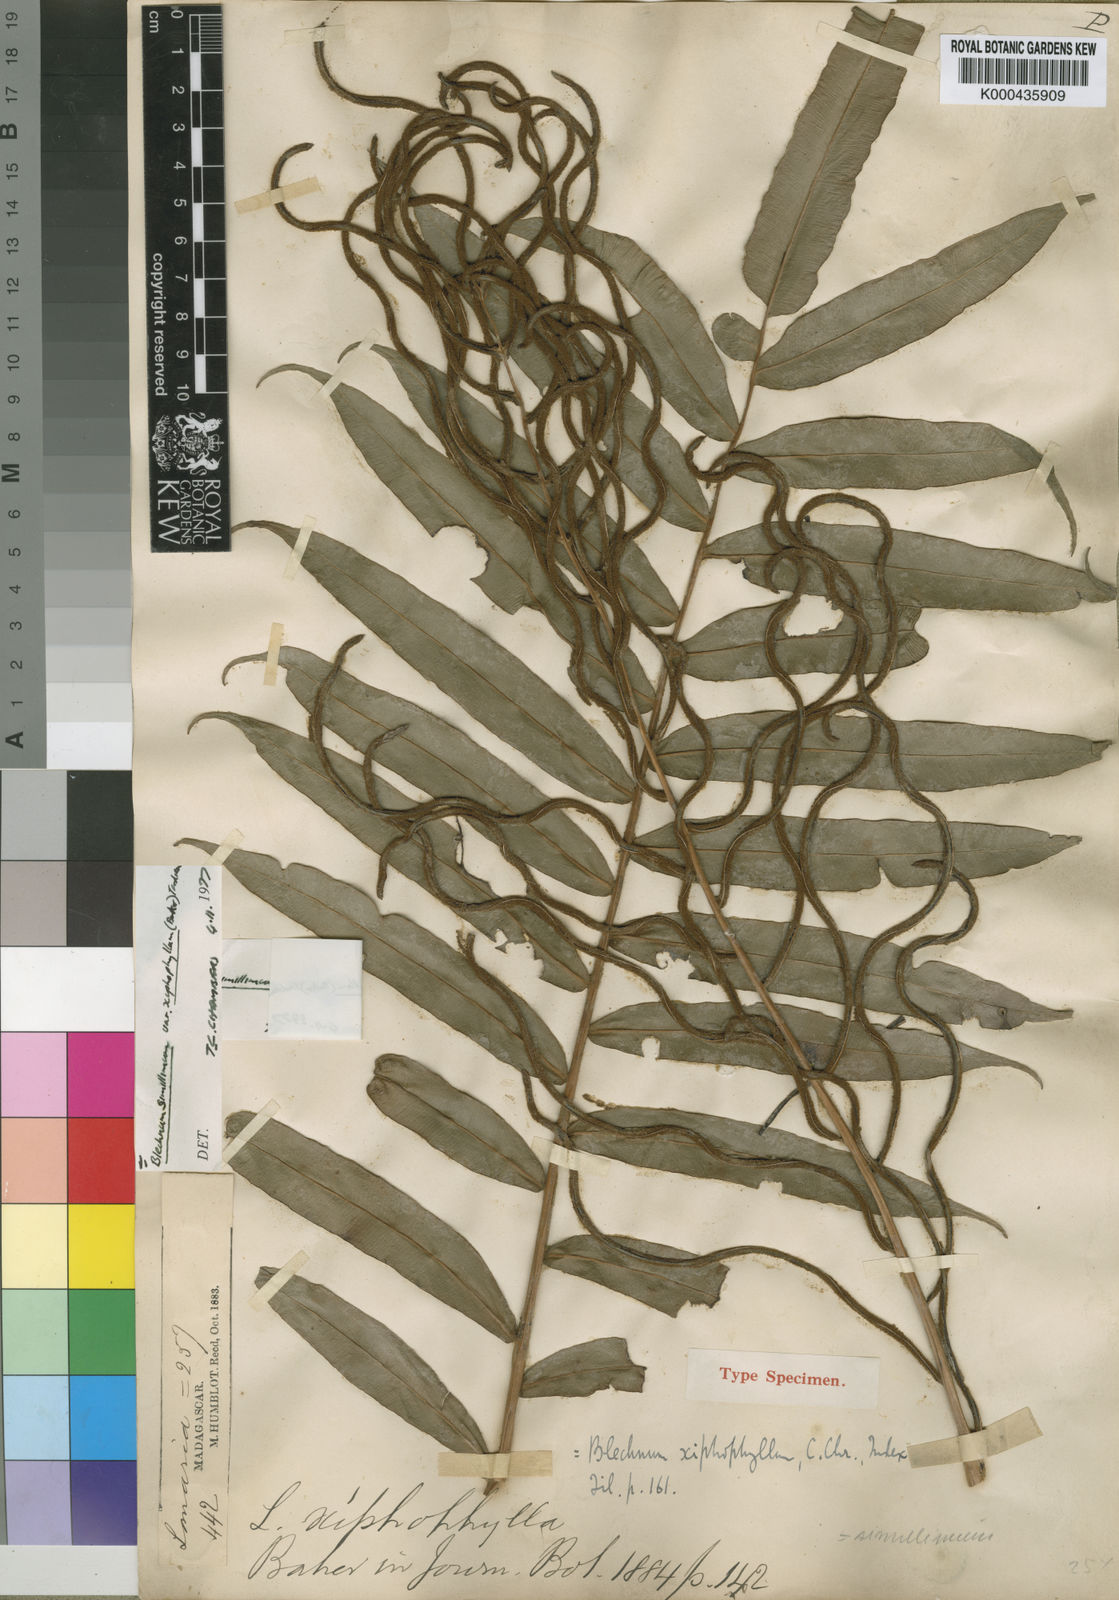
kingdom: Plantae
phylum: Tracheophyta
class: Polypodiopsida
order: Polypodiales
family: Blechnaceae
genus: Lomaridium
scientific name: Lomaridium simillimum
